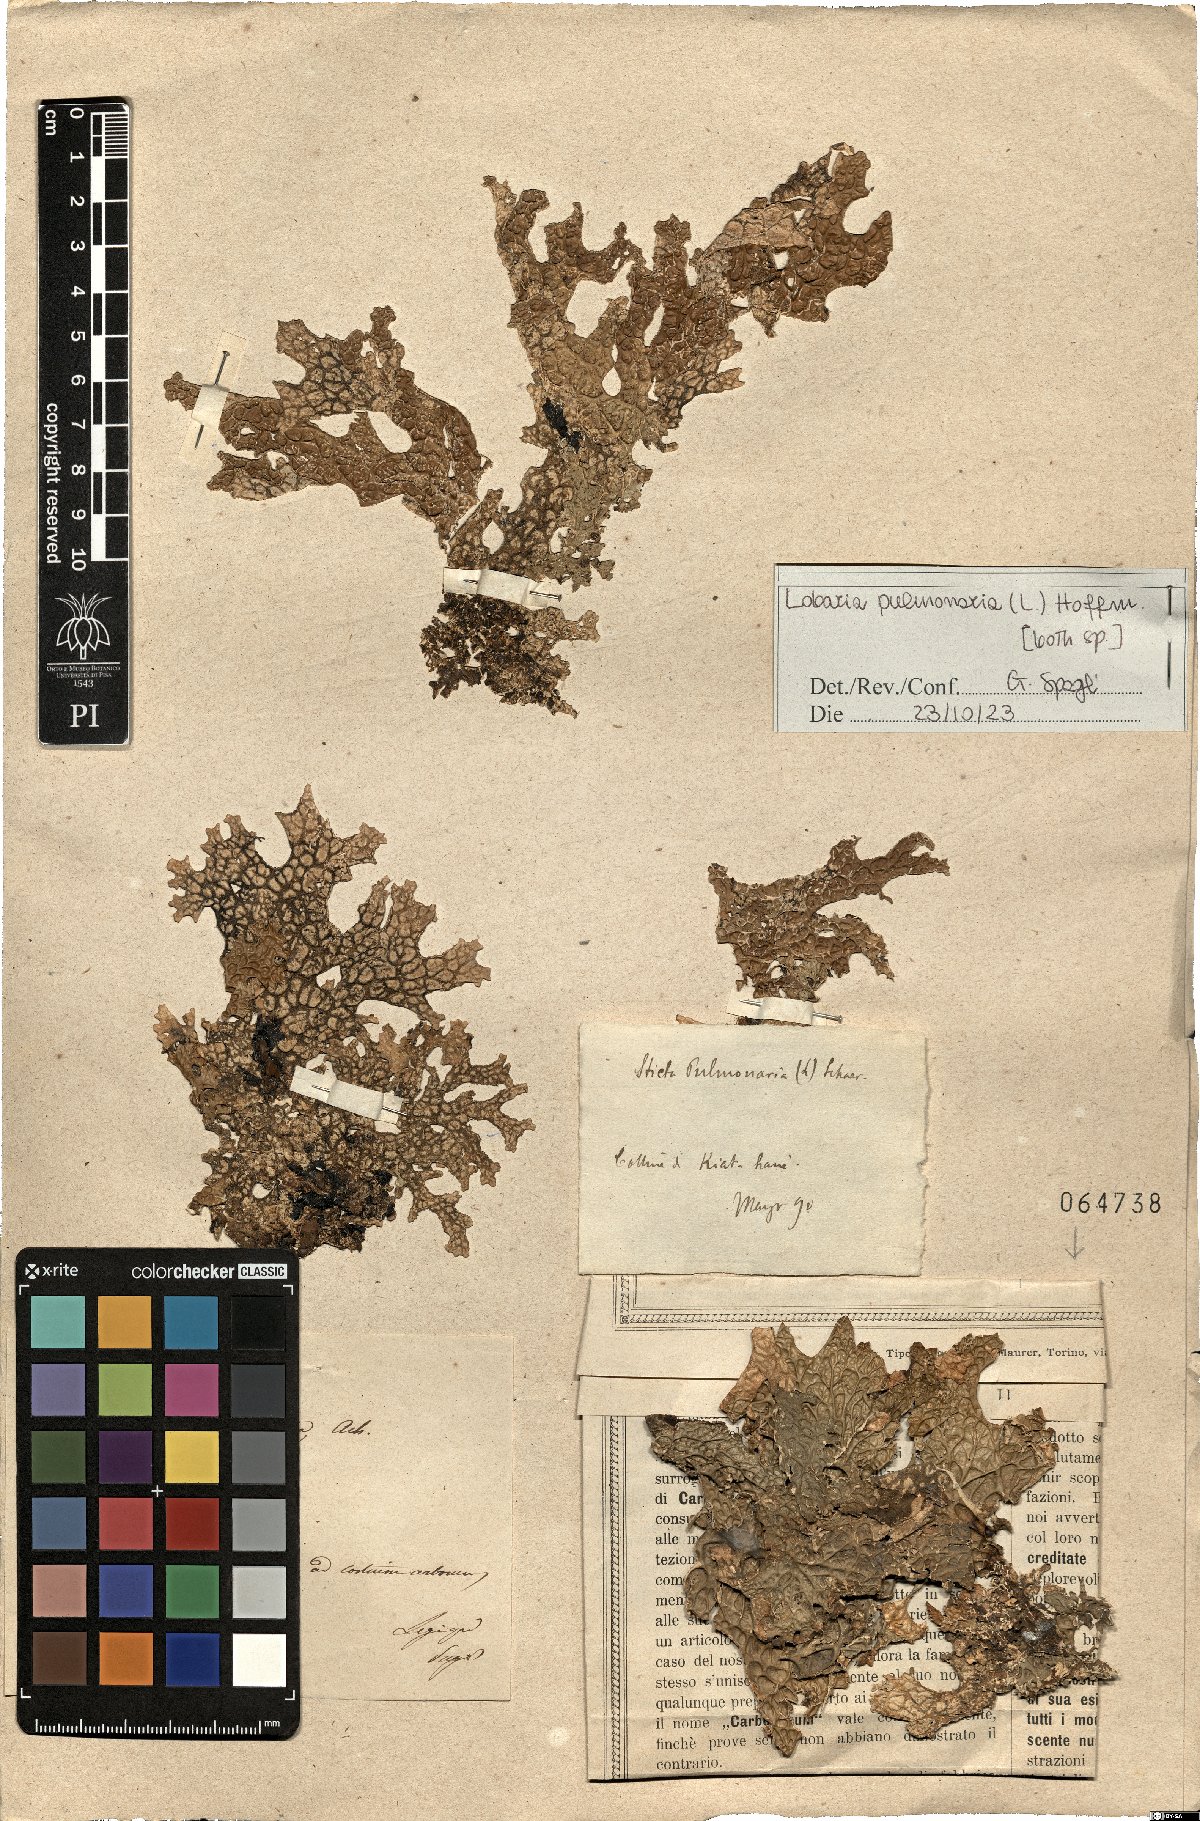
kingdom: Fungi
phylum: Ascomycota
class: Lecanoromycetes
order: Peltigerales
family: Lobariaceae
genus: Lobaria
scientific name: Lobaria pulmonaria
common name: Lungwort
